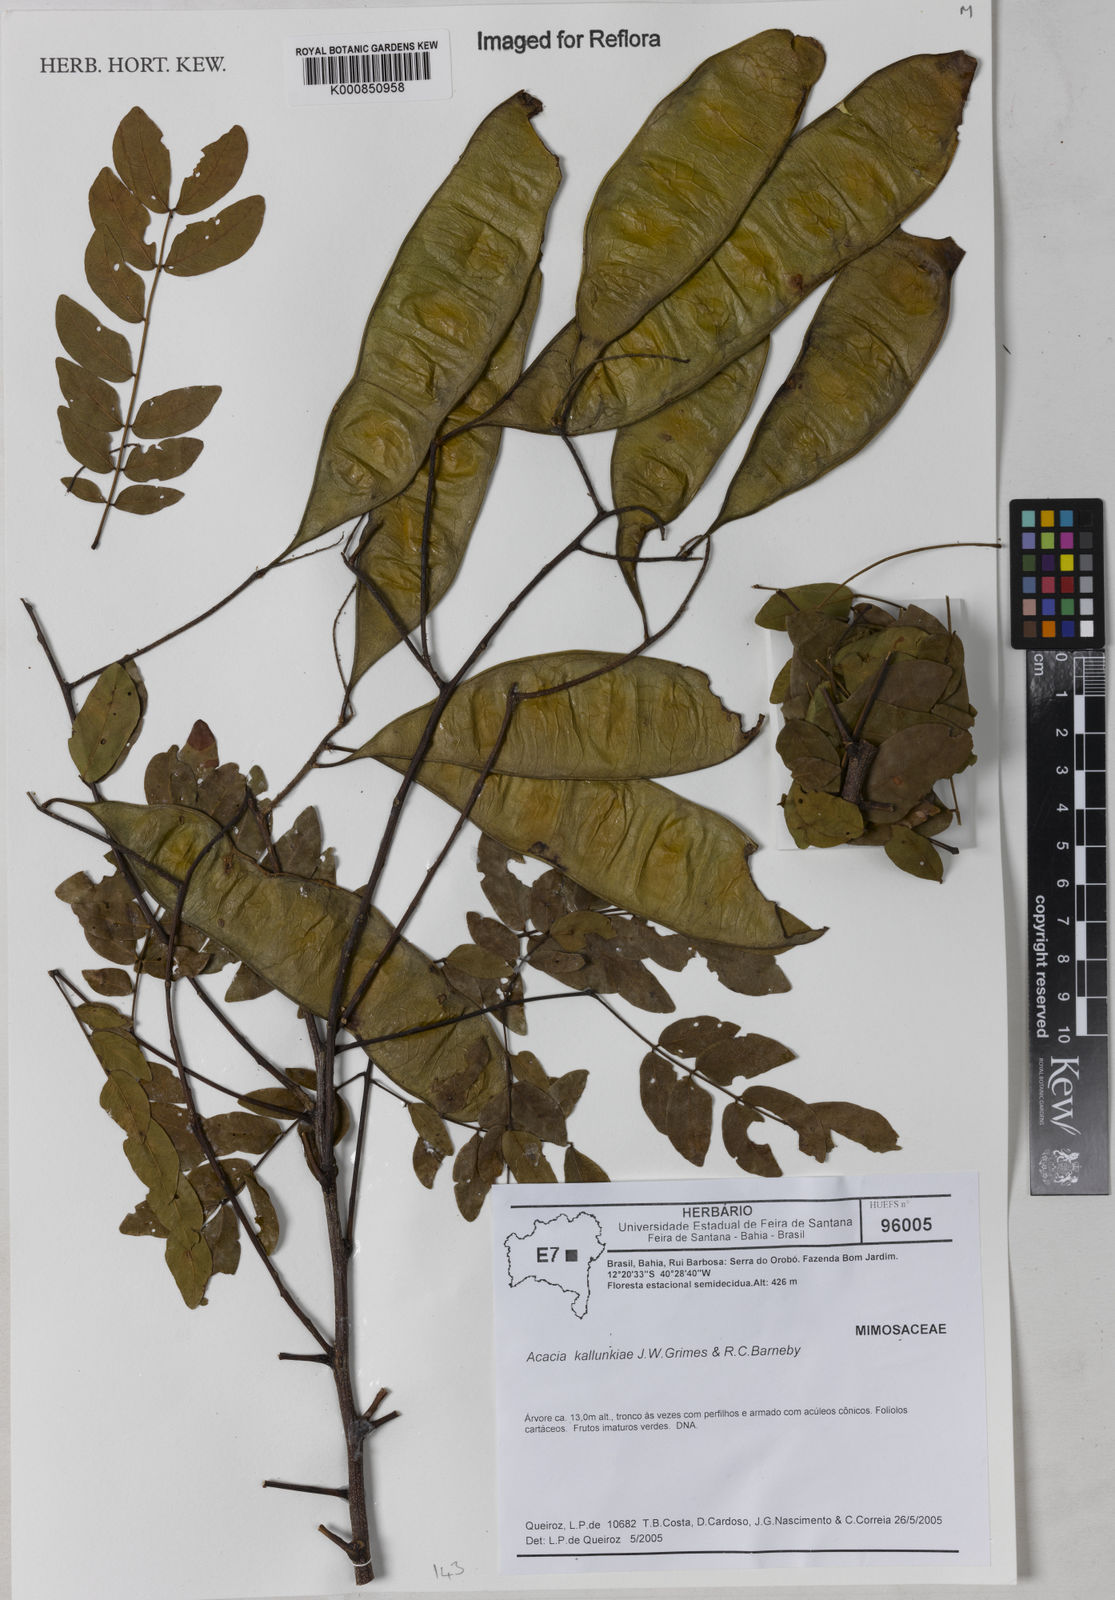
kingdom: Plantae
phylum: Tracheophyta
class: Magnoliopsida
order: Fabales
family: Fabaceae
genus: Senegalia
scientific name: Senegalia kallunkiae
